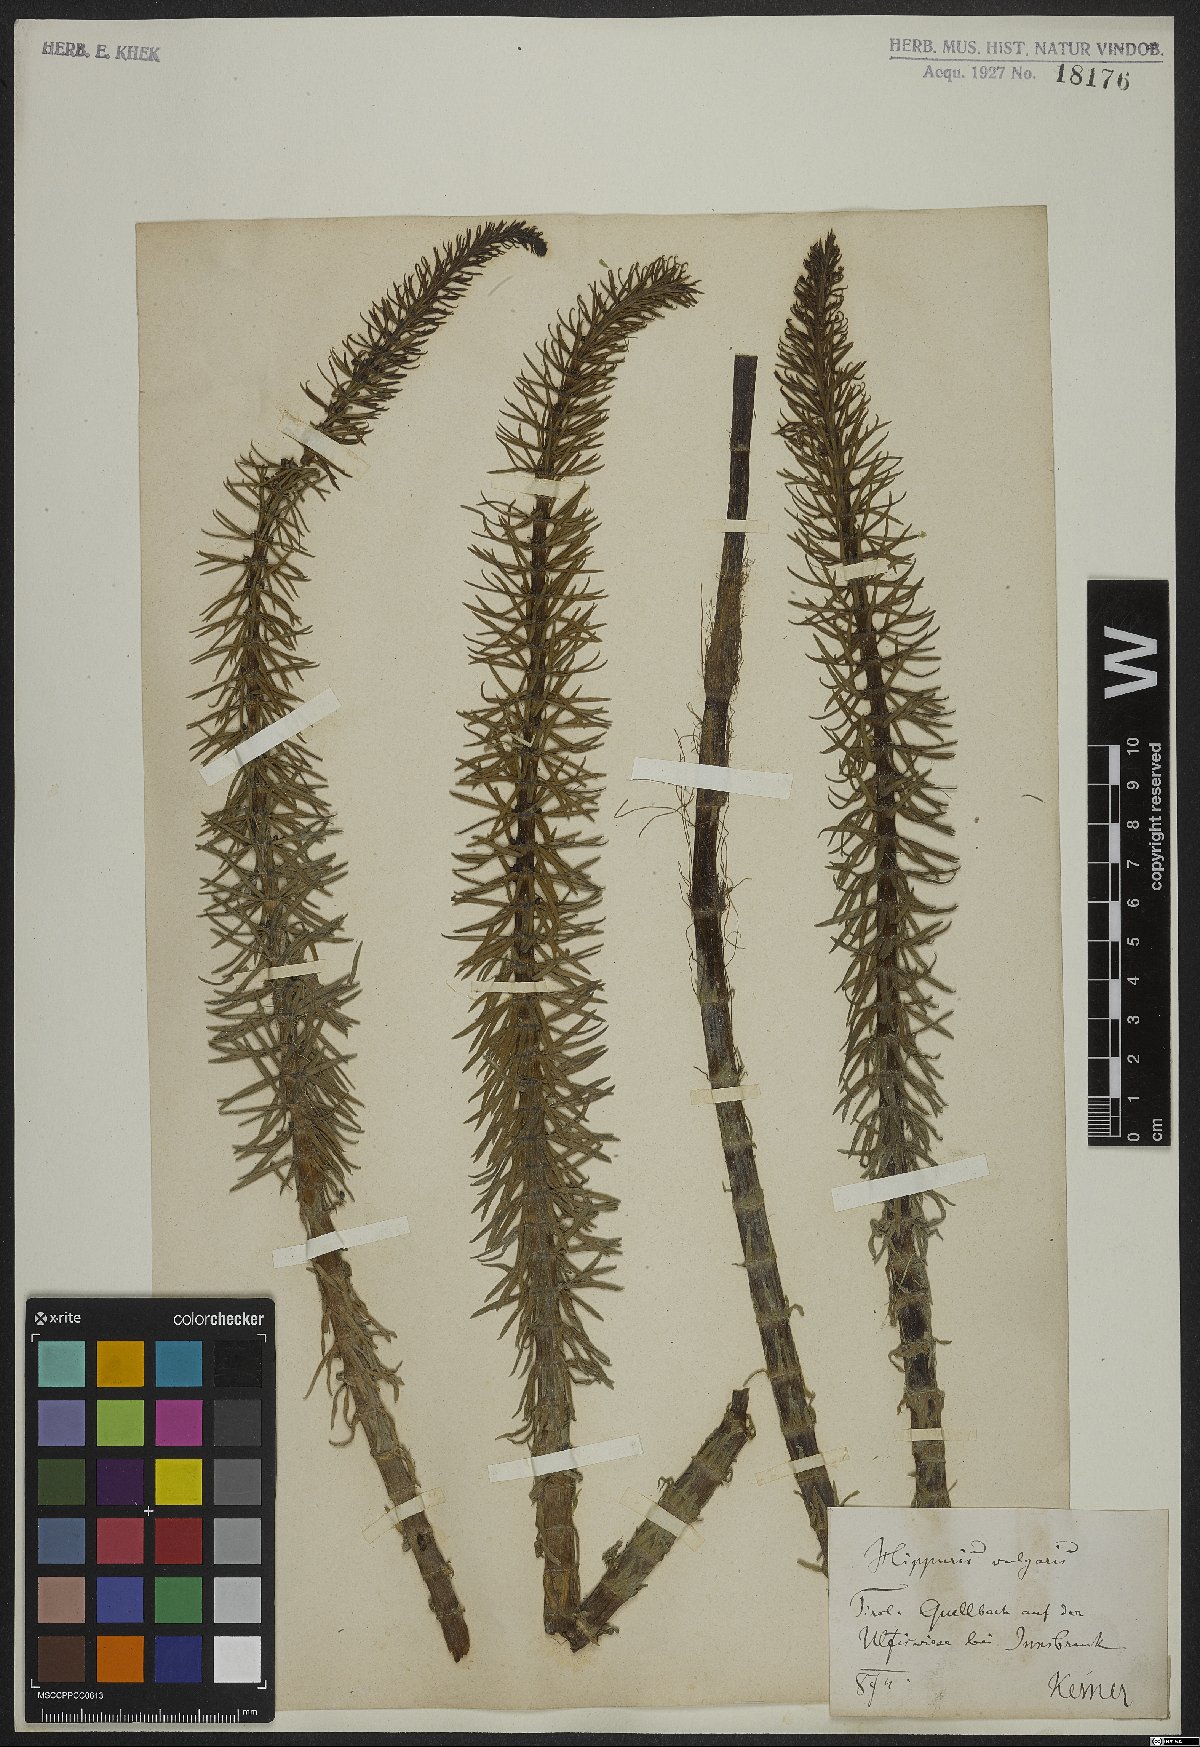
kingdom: Plantae
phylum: Tracheophyta
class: Magnoliopsida
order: Lamiales
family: Plantaginaceae
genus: Hippuris
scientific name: Hippuris vulgaris
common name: Mare's-tail
